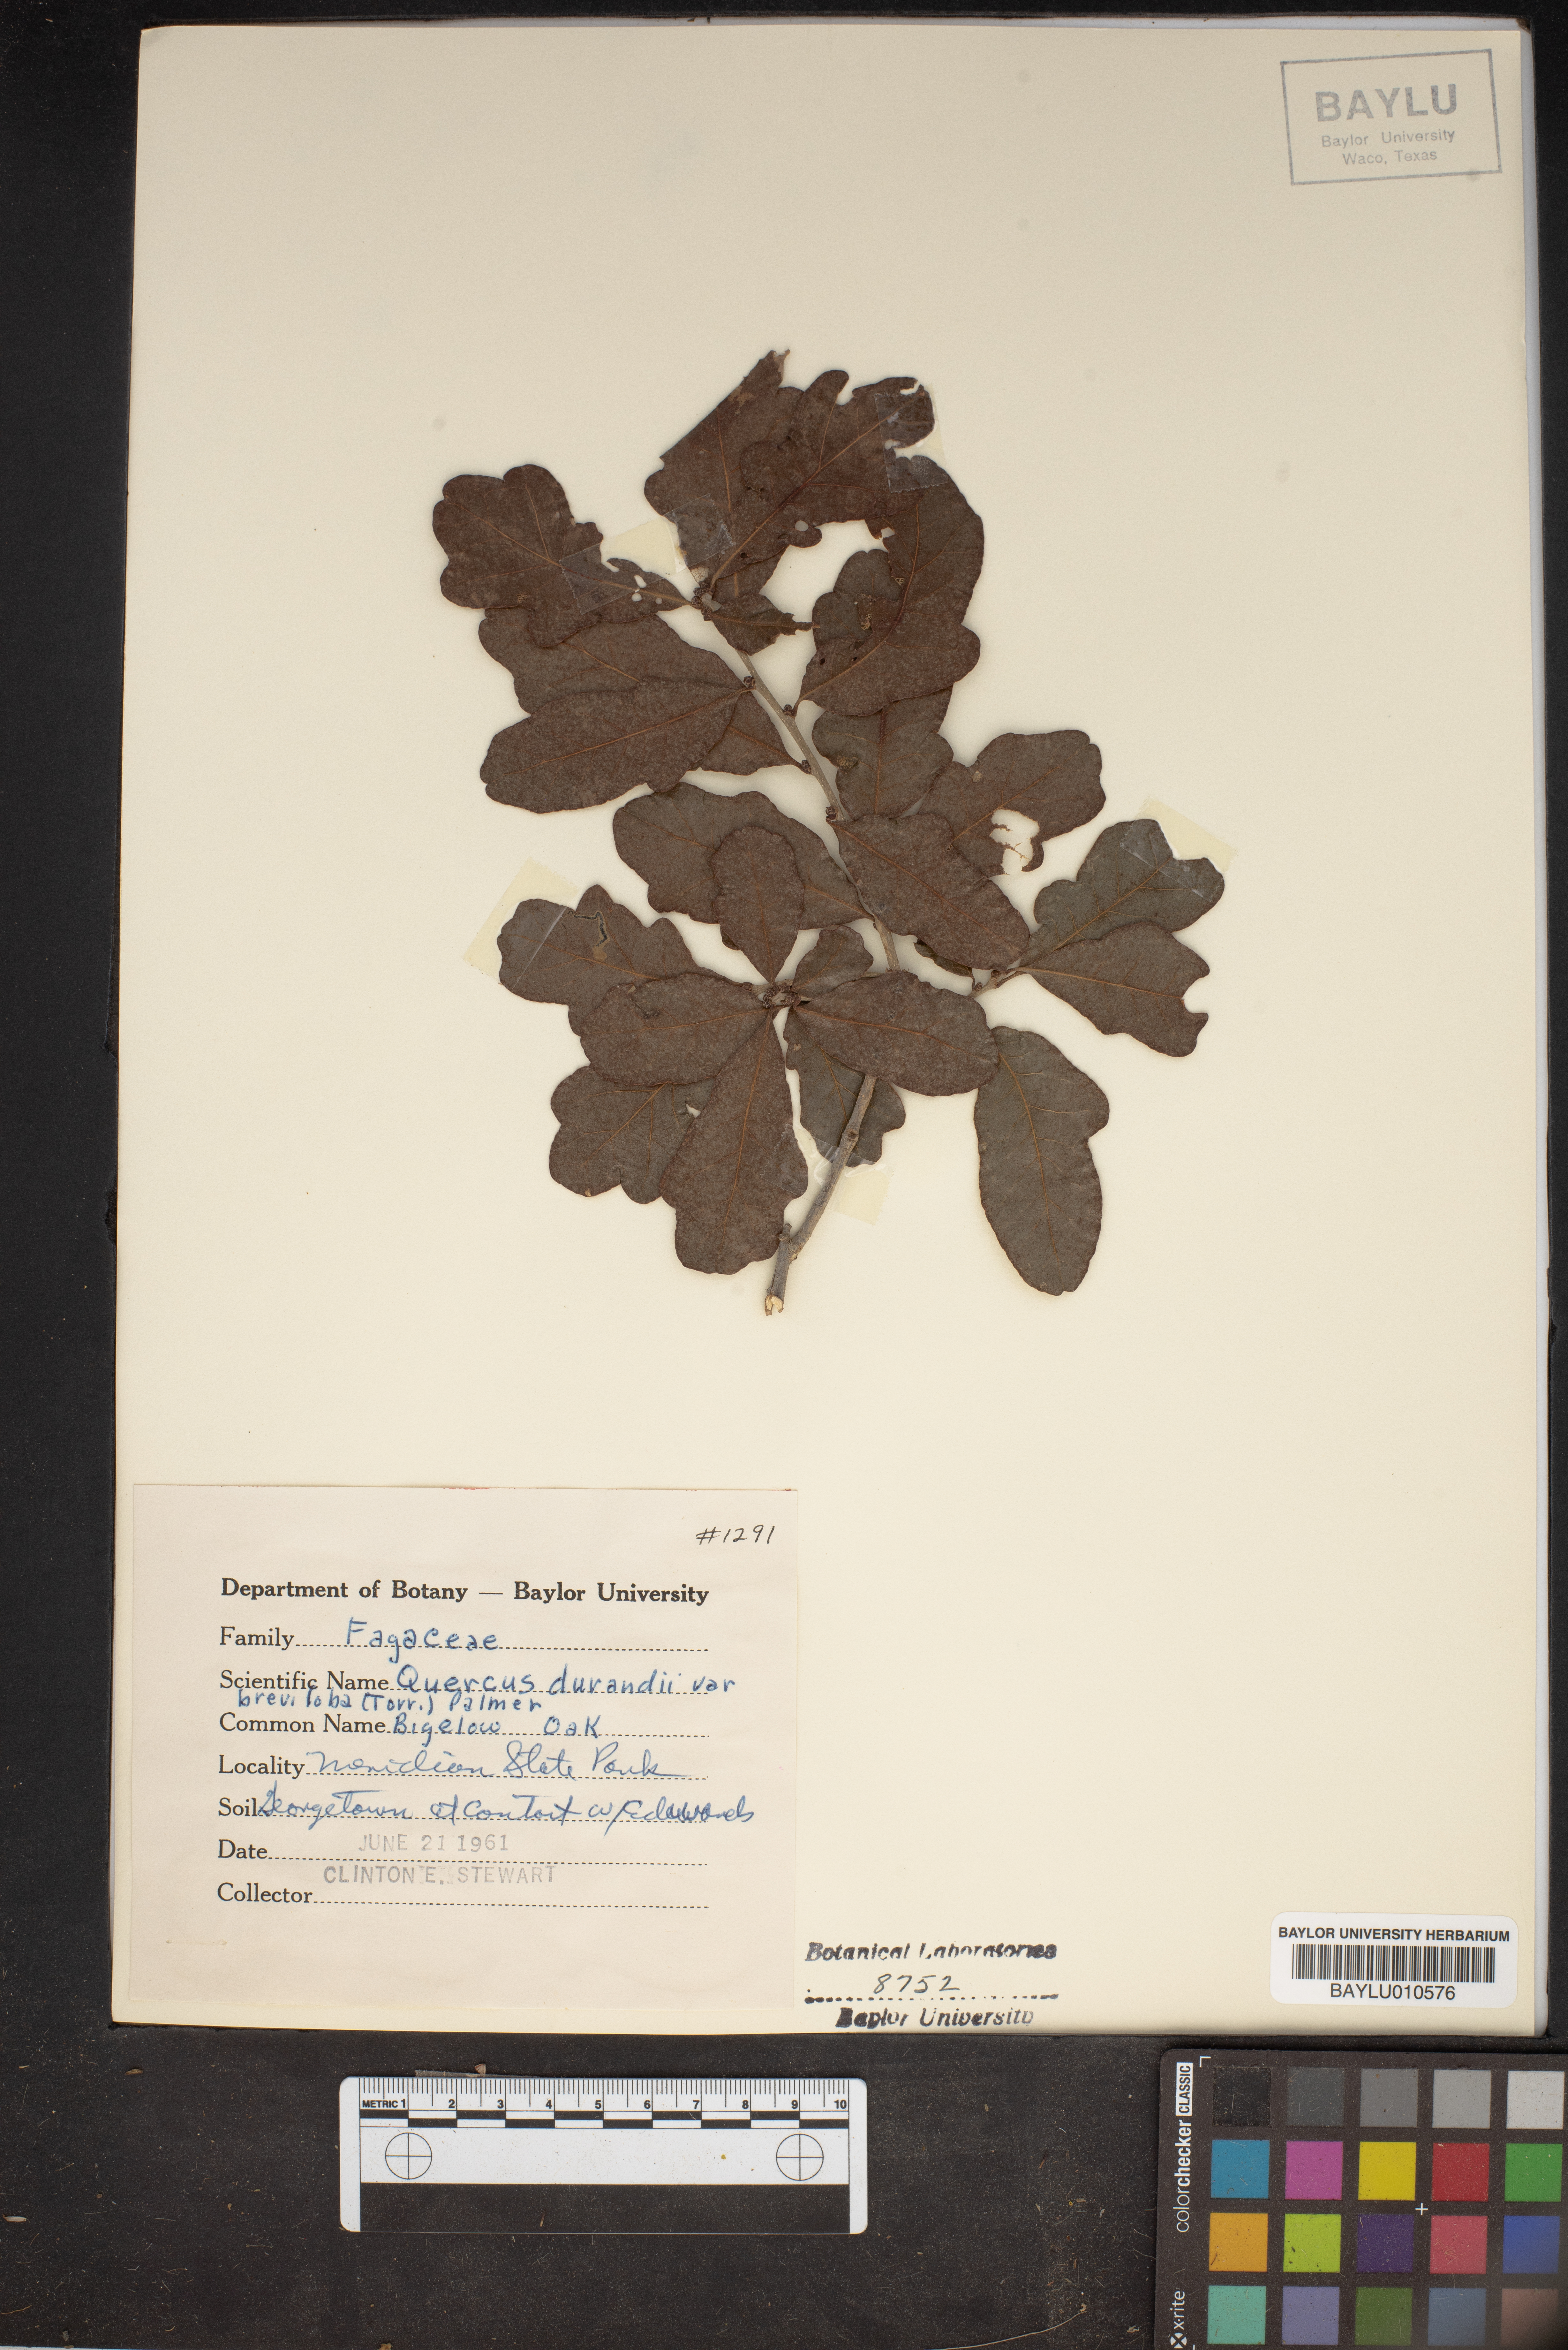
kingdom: Plantae
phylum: Tracheophyta
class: Magnoliopsida
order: Fagales
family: Fagaceae
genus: Quercus
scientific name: Quercus sinuata
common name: Durand oak
